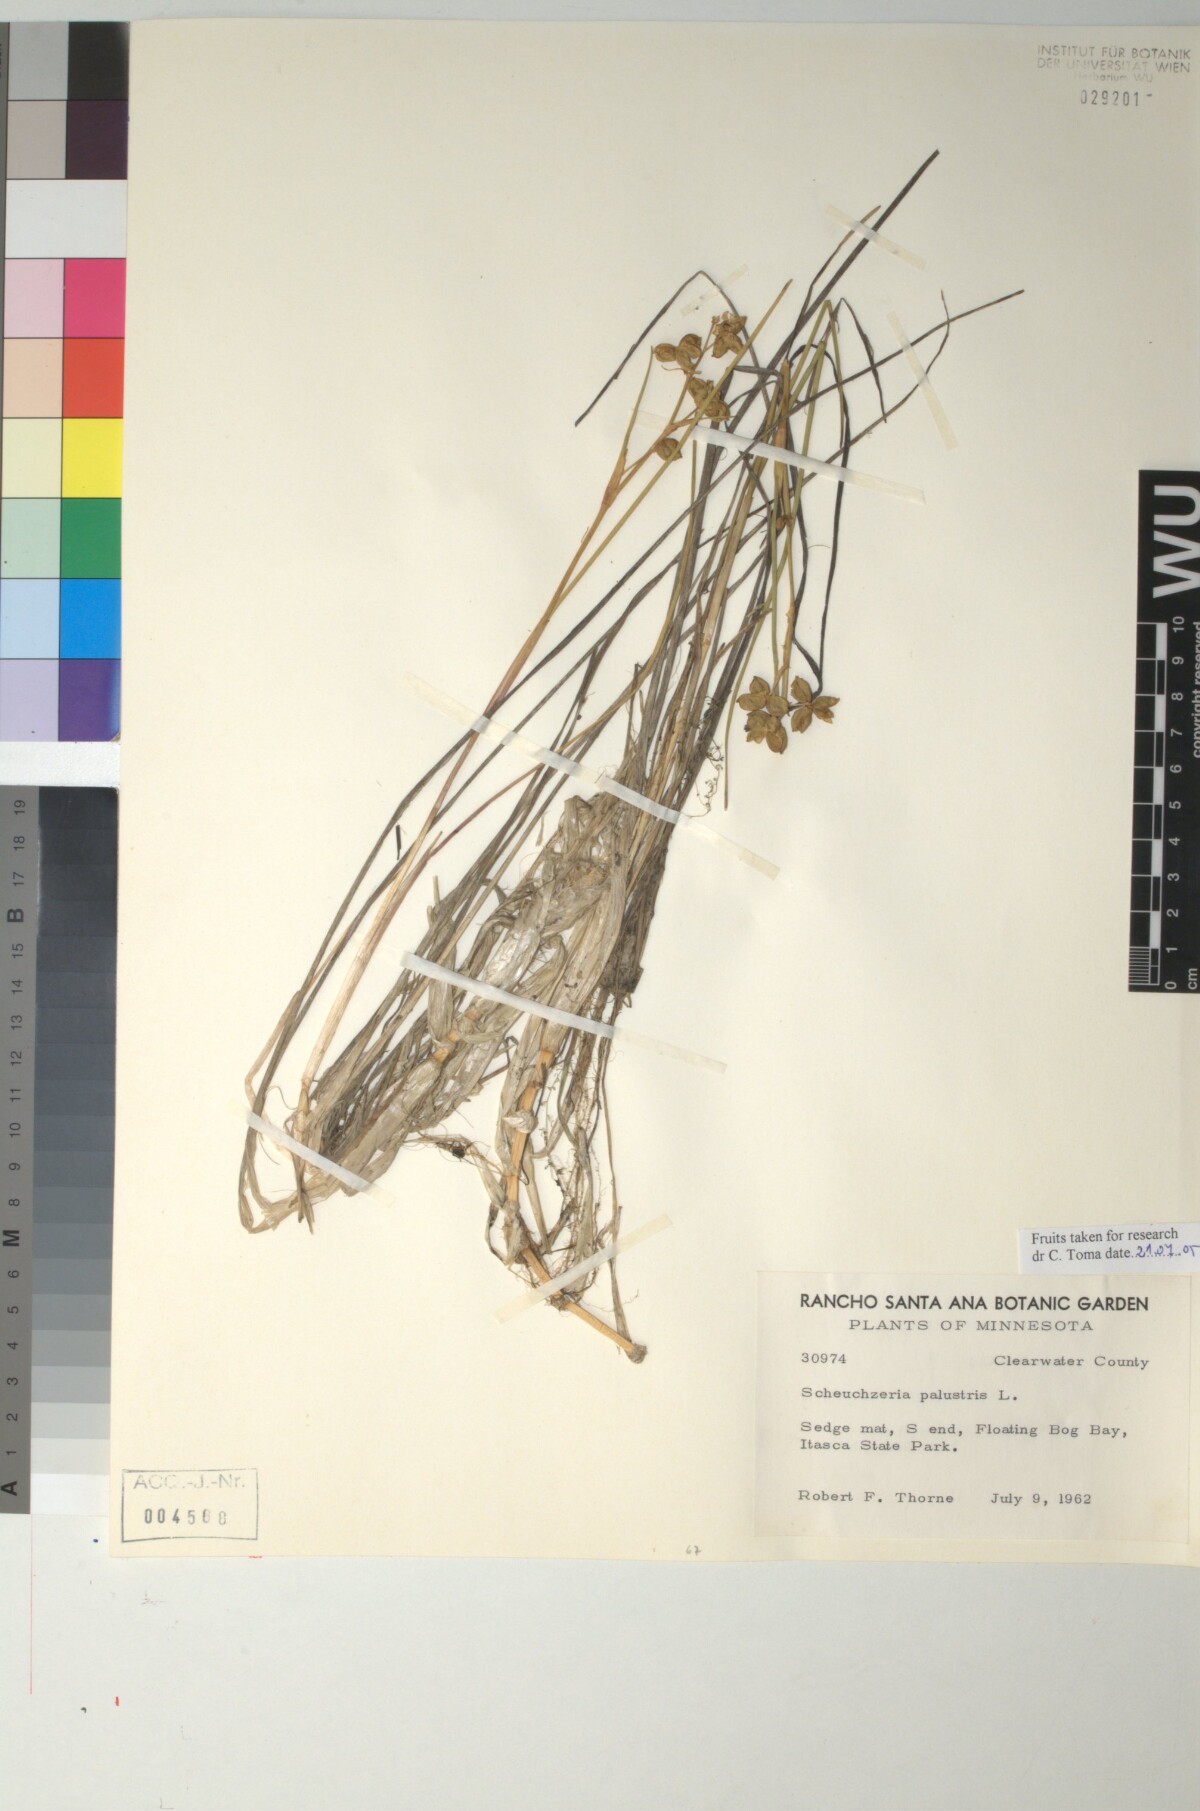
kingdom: Plantae
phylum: Tracheophyta
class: Liliopsida
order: Alismatales
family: Scheuchzeriaceae
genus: Scheuchzeria
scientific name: Scheuchzeria palustris
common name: Rannoch-rush
